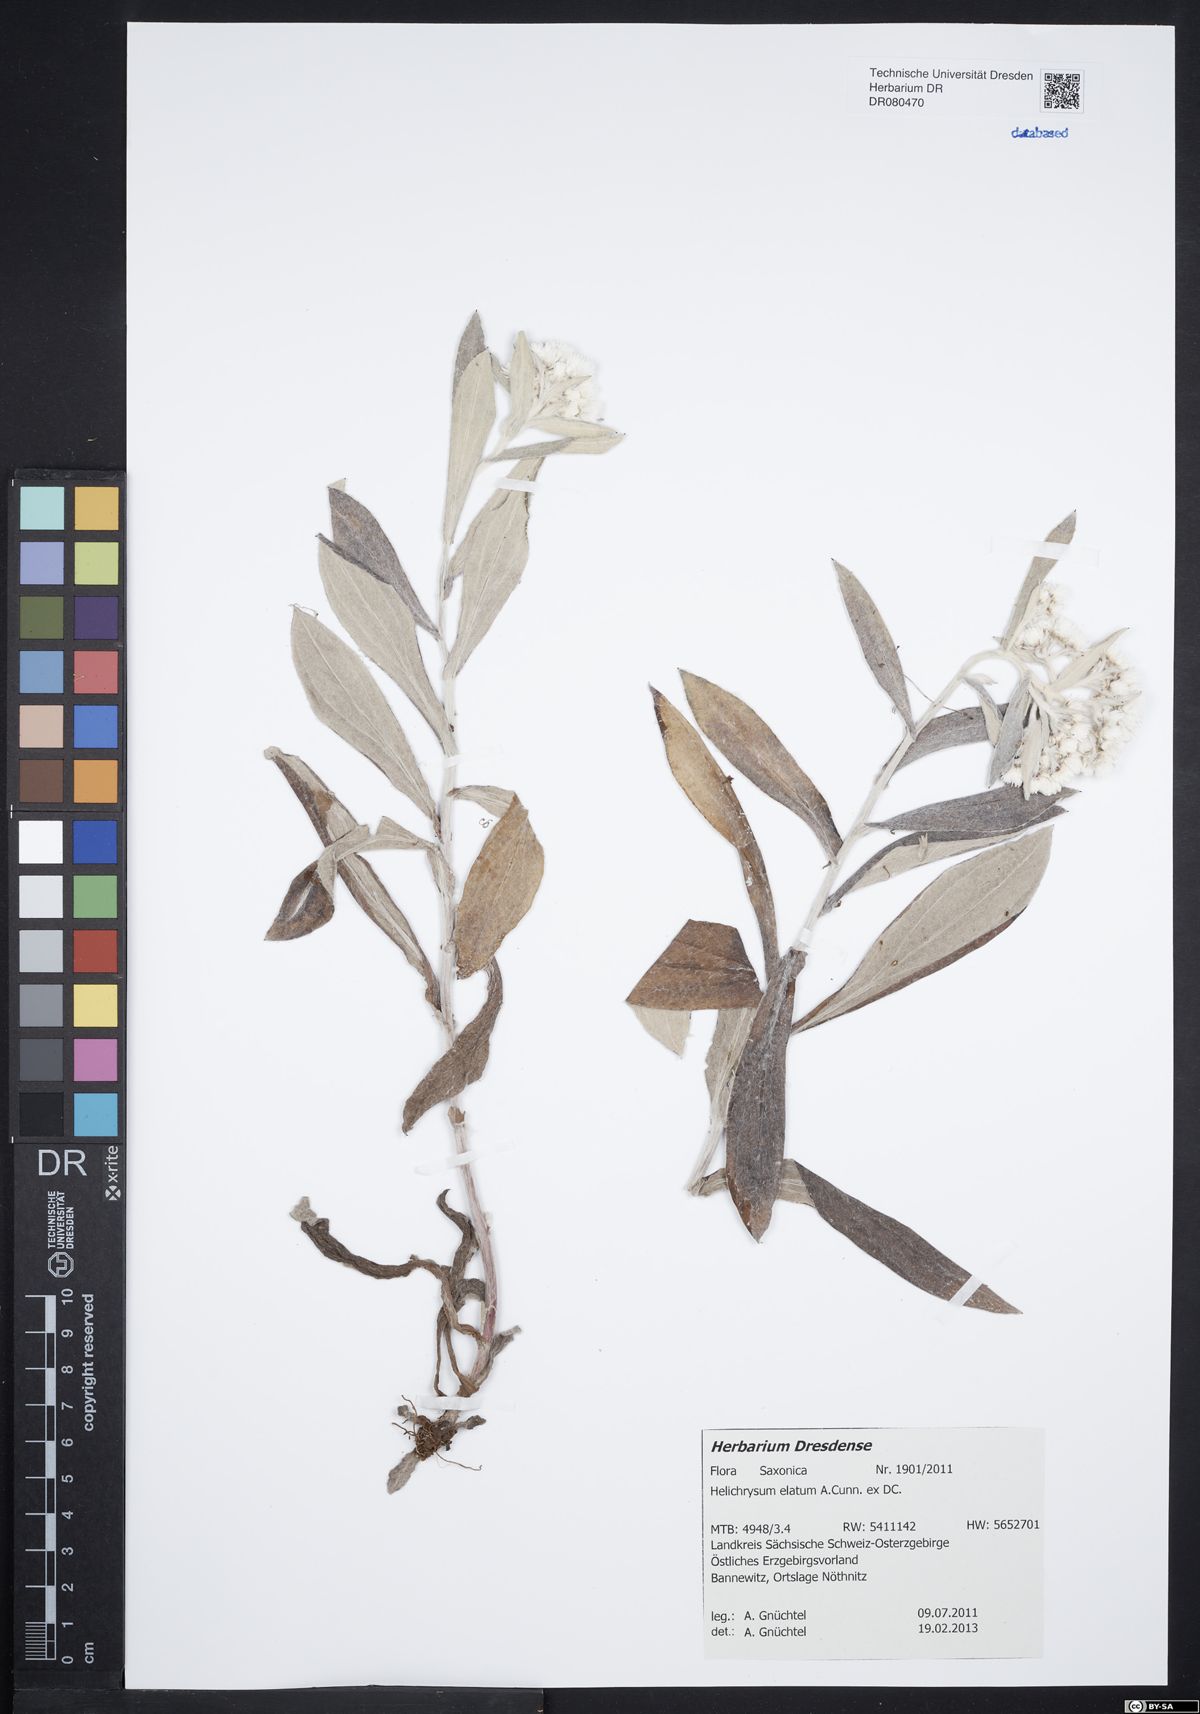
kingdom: Plantae
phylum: Tracheophyta
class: Magnoliopsida
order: Asterales
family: Asteraceae
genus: Leucozoma
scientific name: Leucozoma elatum
